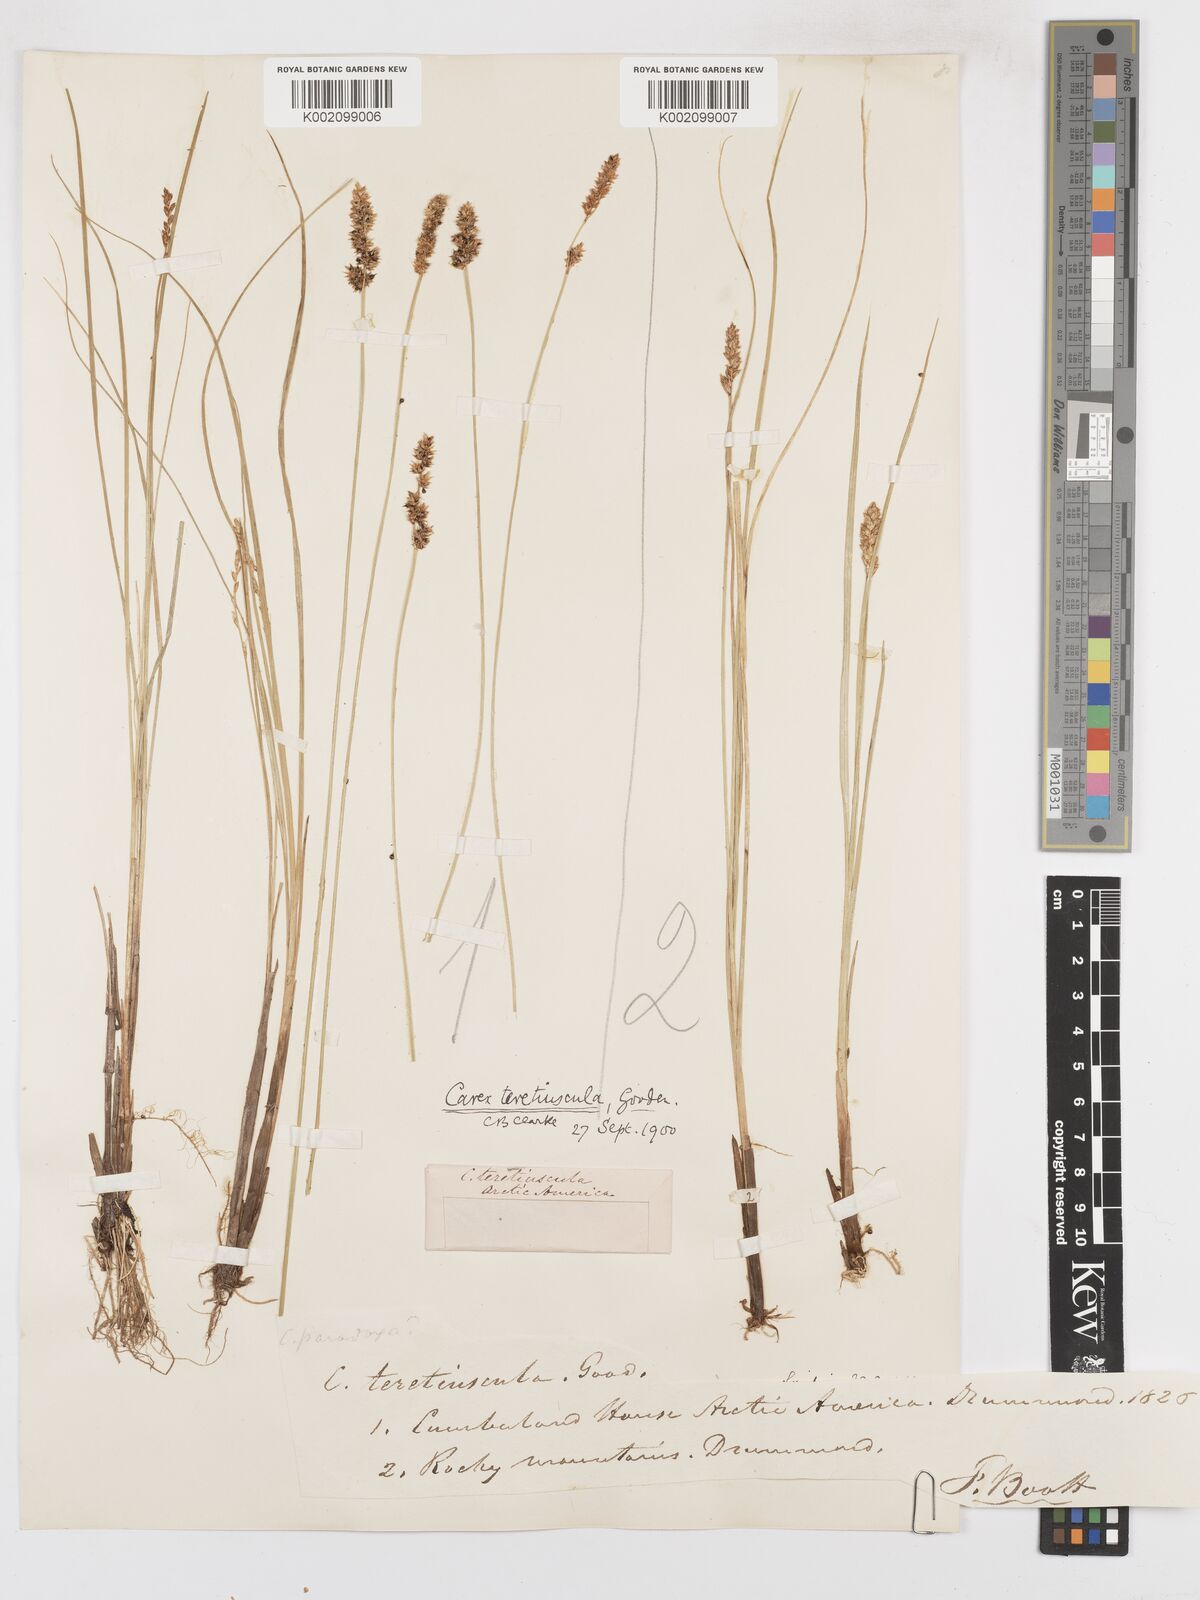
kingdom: Plantae
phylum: Tracheophyta
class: Liliopsida
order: Poales
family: Cyperaceae
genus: Carex
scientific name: Carex diandra
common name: Lesser tussock-sedge
